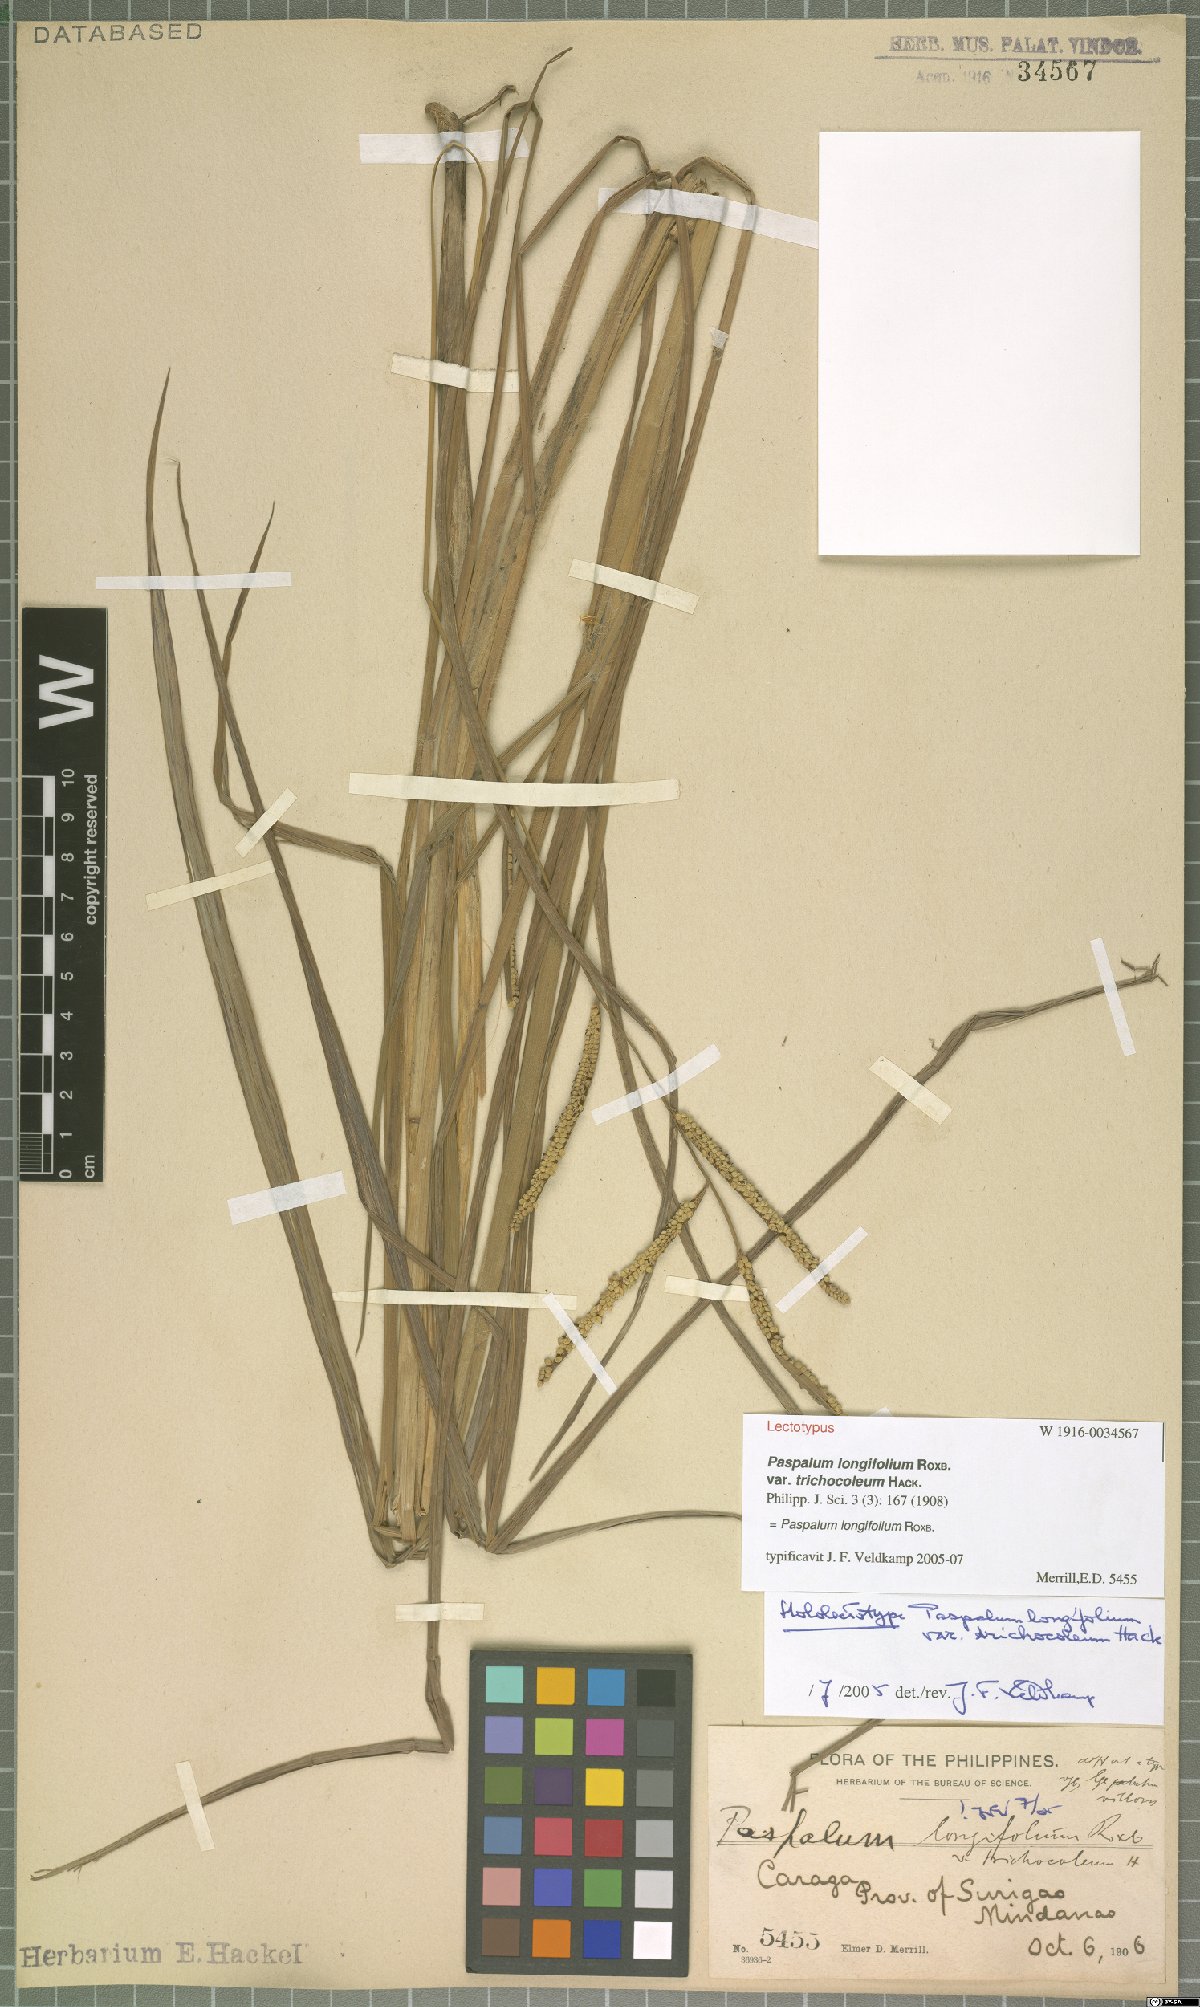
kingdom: Plantae
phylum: Tracheophyta
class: Liliopsida
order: Poales
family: Poaceae
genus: Paspalum
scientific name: Paspalum sumatrense
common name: Long-leaved paspalum
